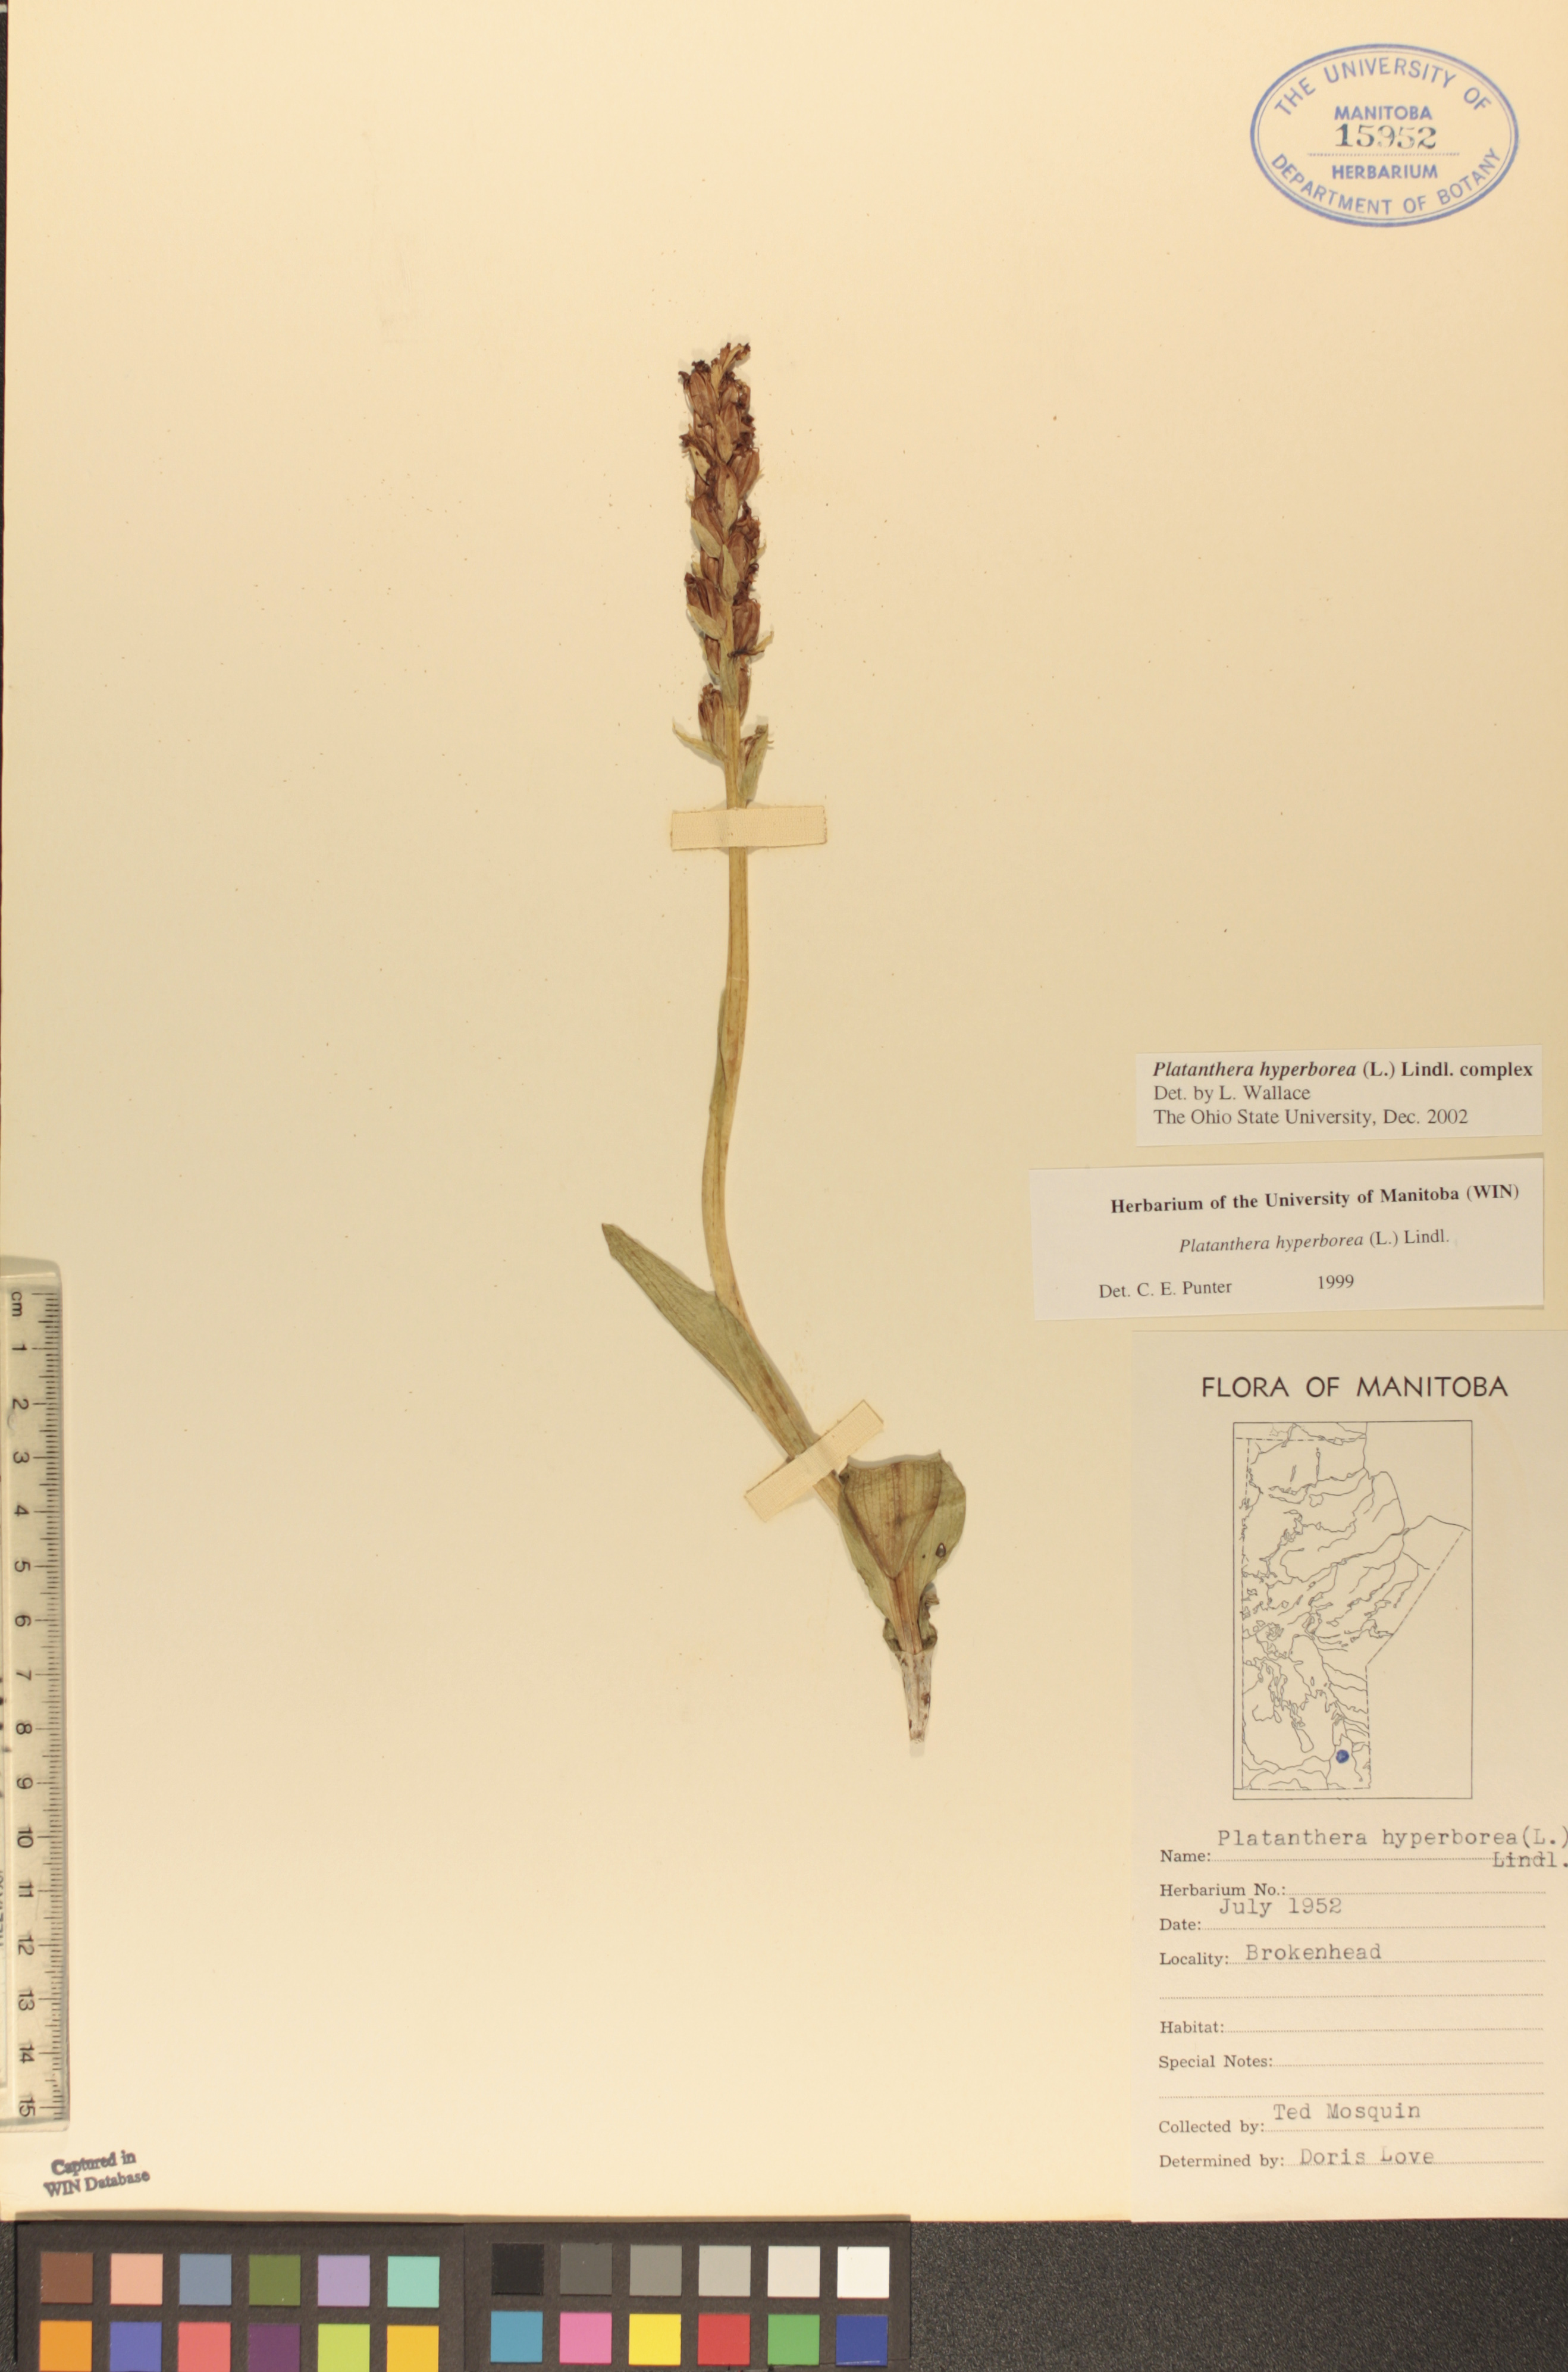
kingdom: Plantae
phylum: Tracheophyta
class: Liliopsida
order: Asparagales
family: Orchidaceae
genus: Platanthera
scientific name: Platanthera hyperborea
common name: Northern green orchid
